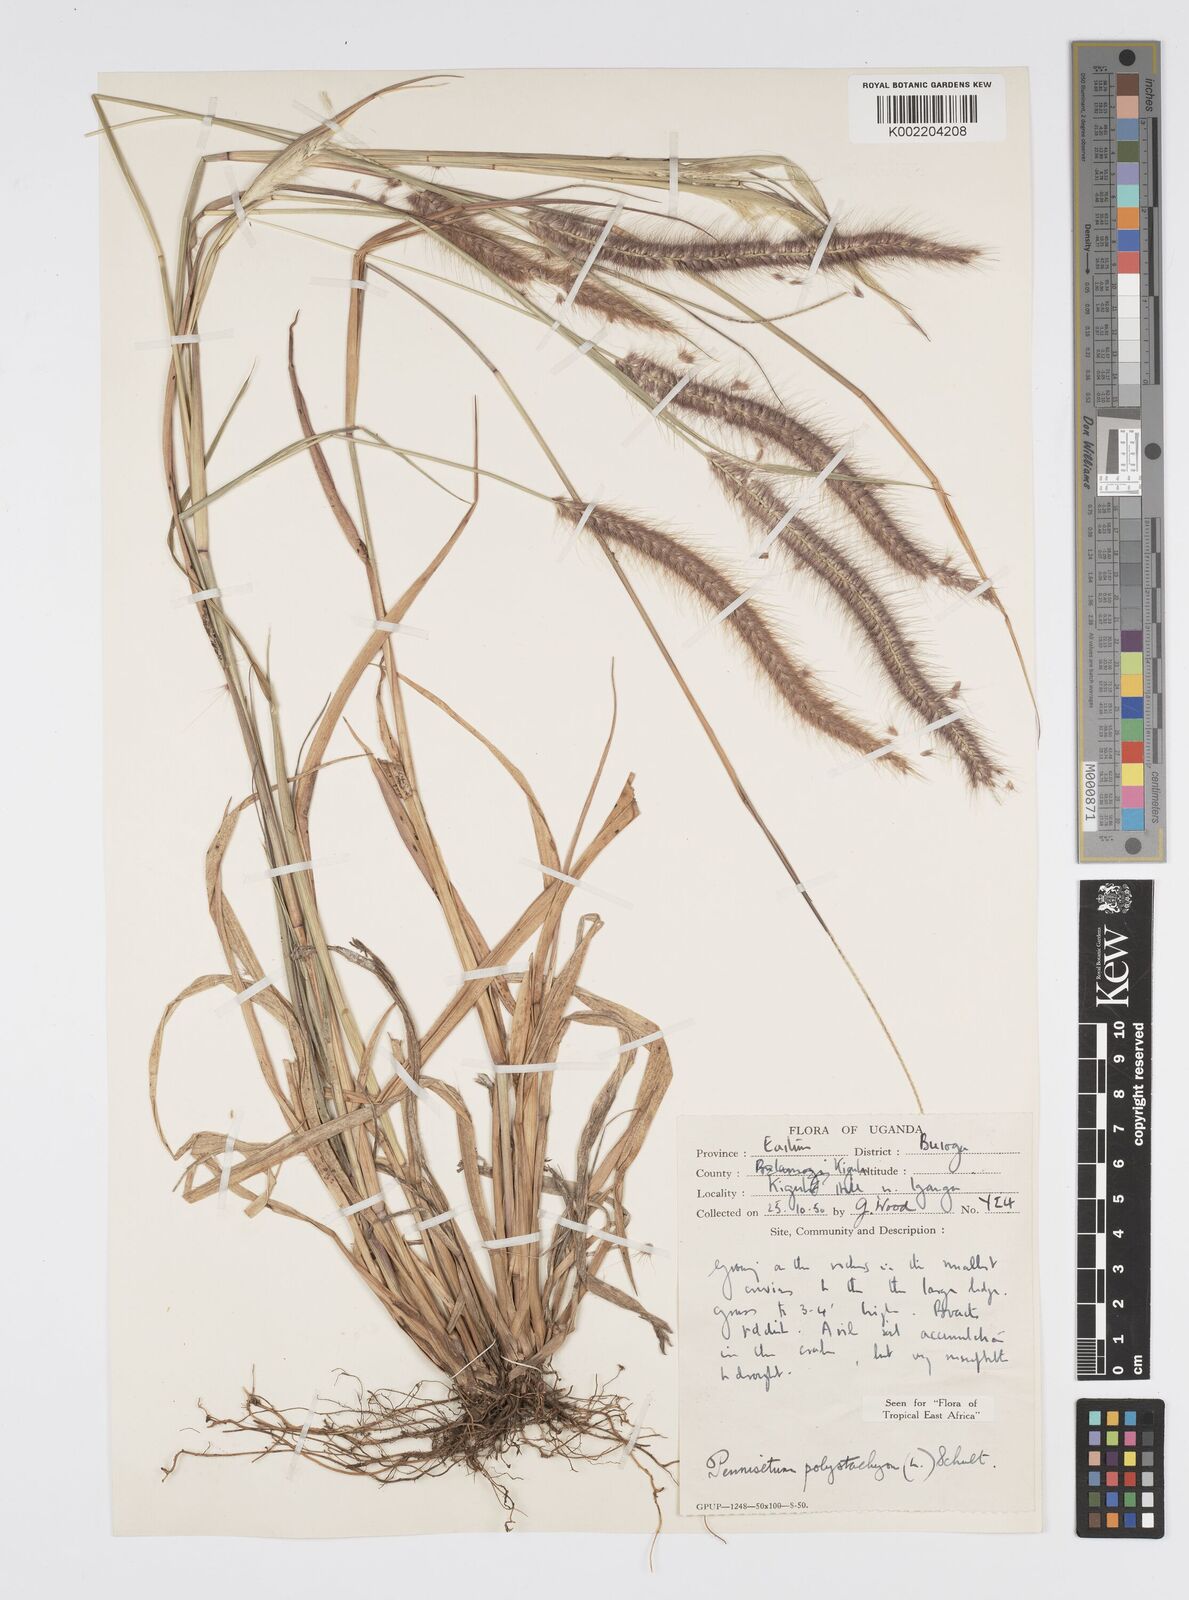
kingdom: Plantae
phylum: Tracheophyta
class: Liliopsida
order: Poales
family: Poaceae
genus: Setaria
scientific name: Setaria parviflora
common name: Knotroot bristle-grass
